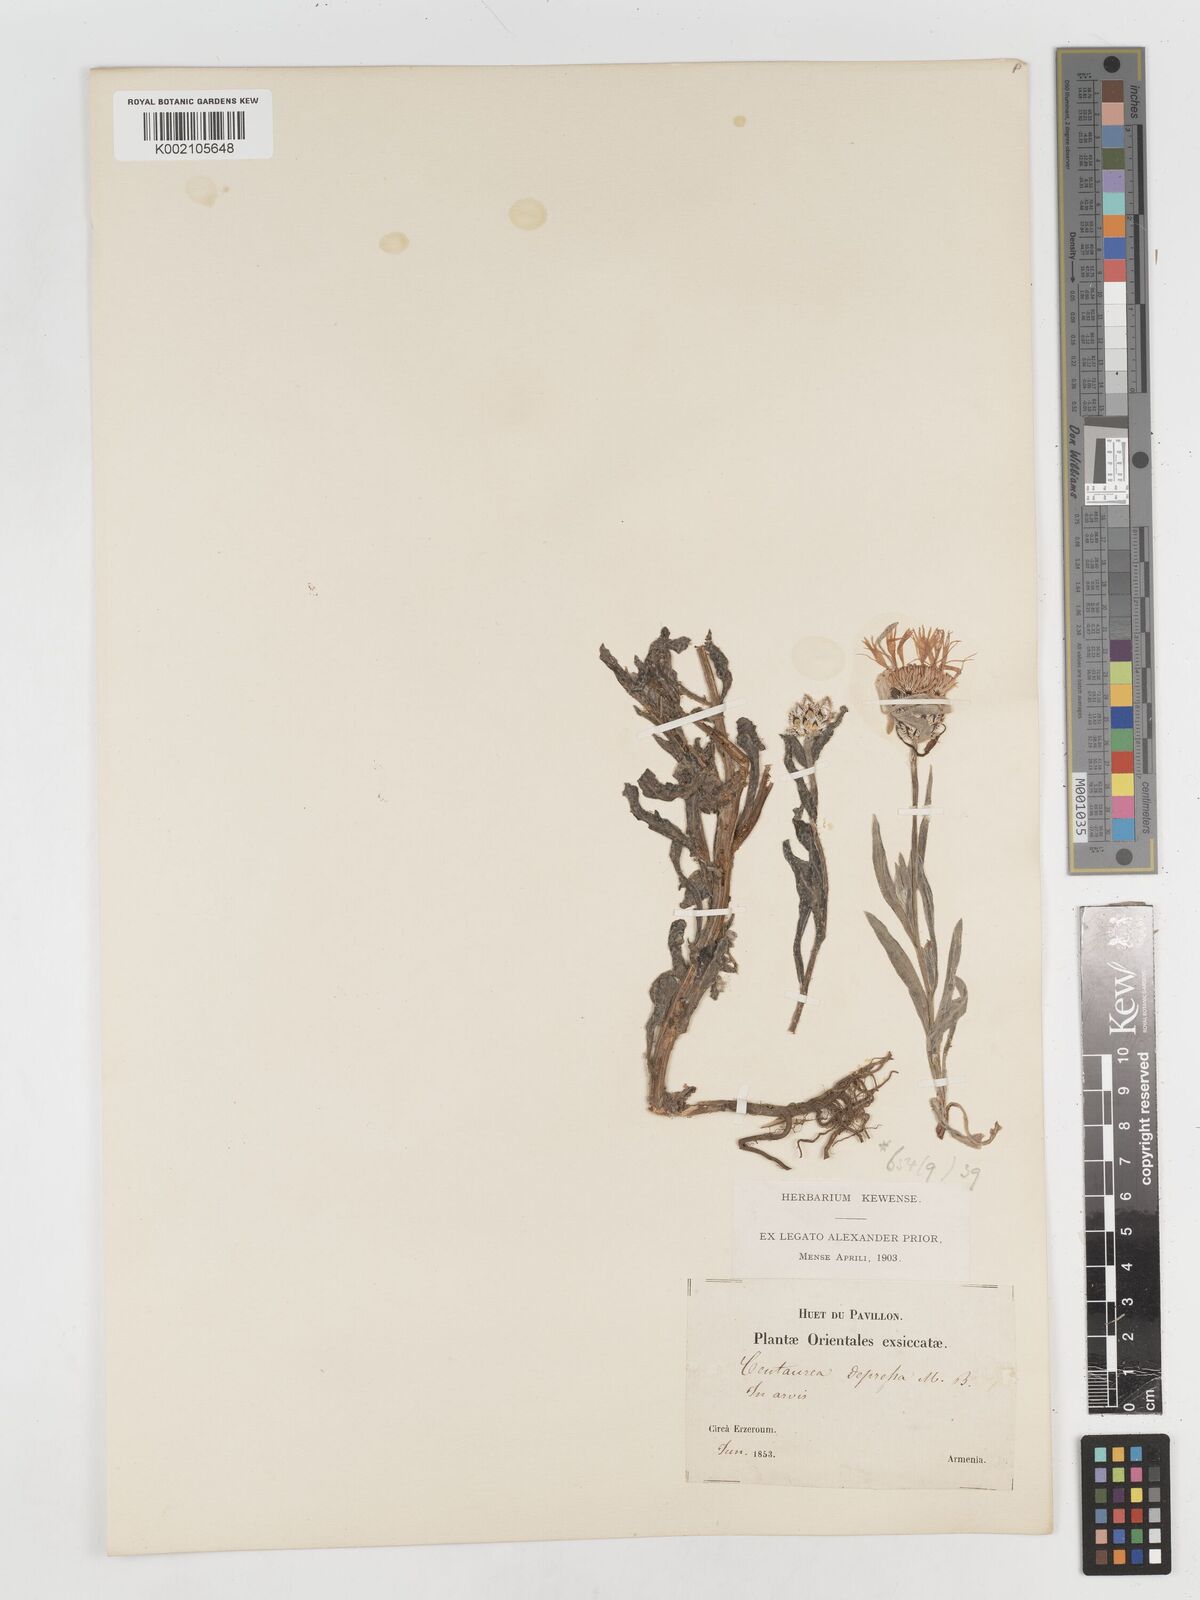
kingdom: Plantae
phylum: Tracheophyta
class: Magnoliopsida
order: Asterales
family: Asteraceae
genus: Centaurea
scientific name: Centaurea depressa
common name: Iranian knapweed
